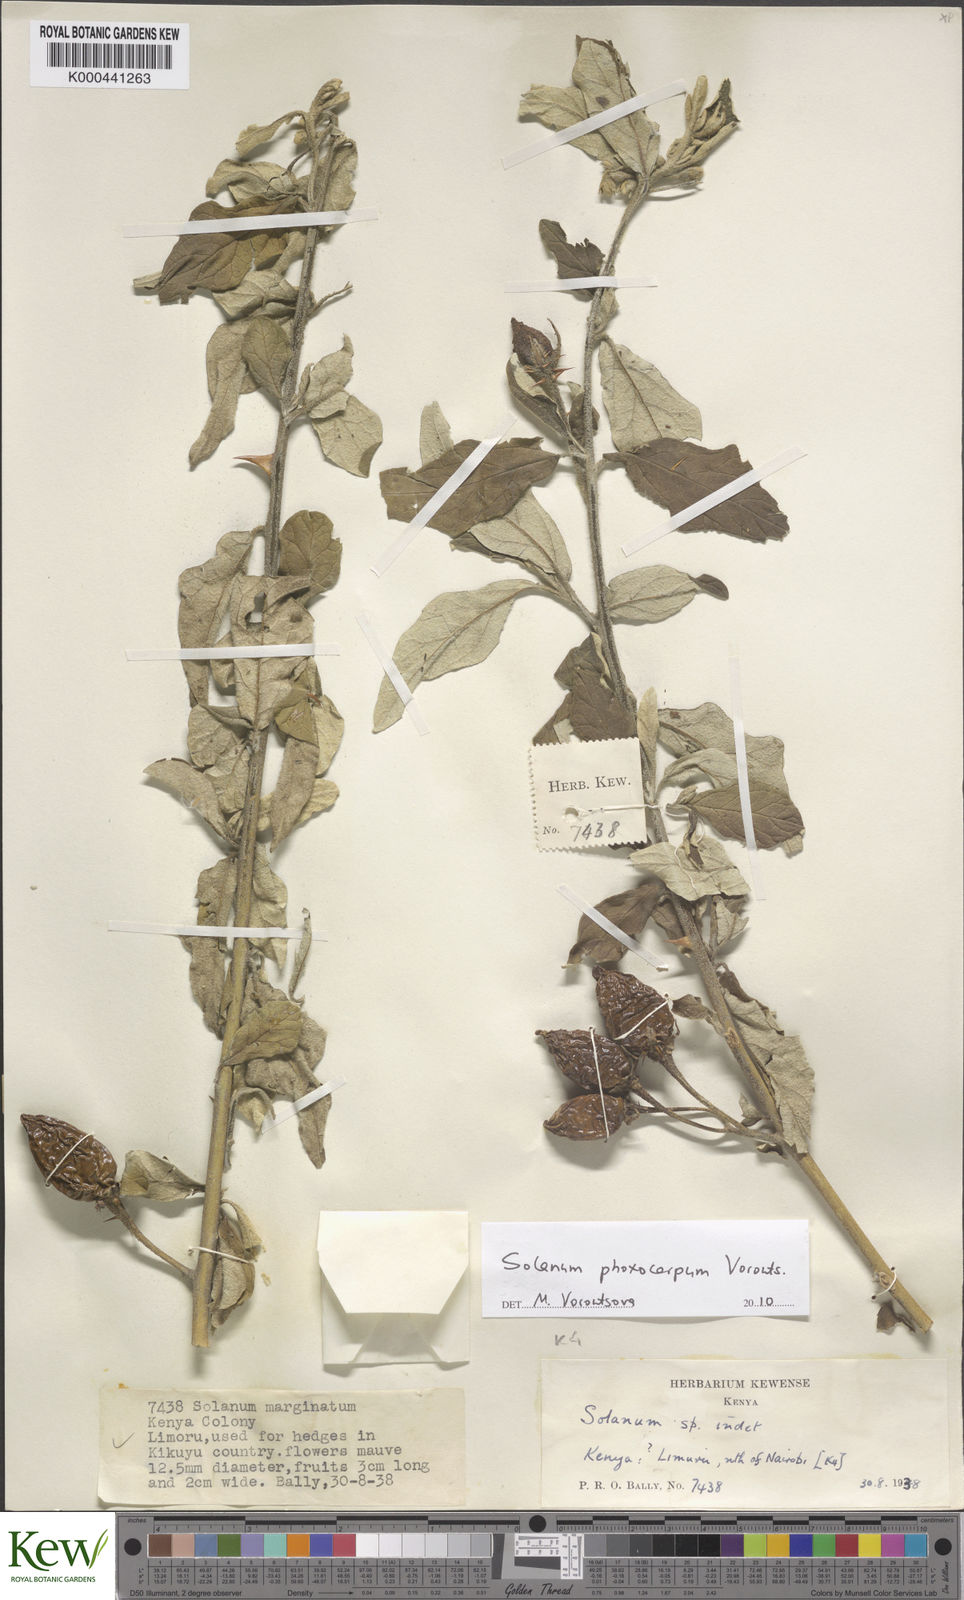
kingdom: Plantae
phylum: Tracheophyta
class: Magnoliopsida
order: Solanales
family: Solanaceae
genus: Solanum
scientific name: Solanum phoxocarpum
